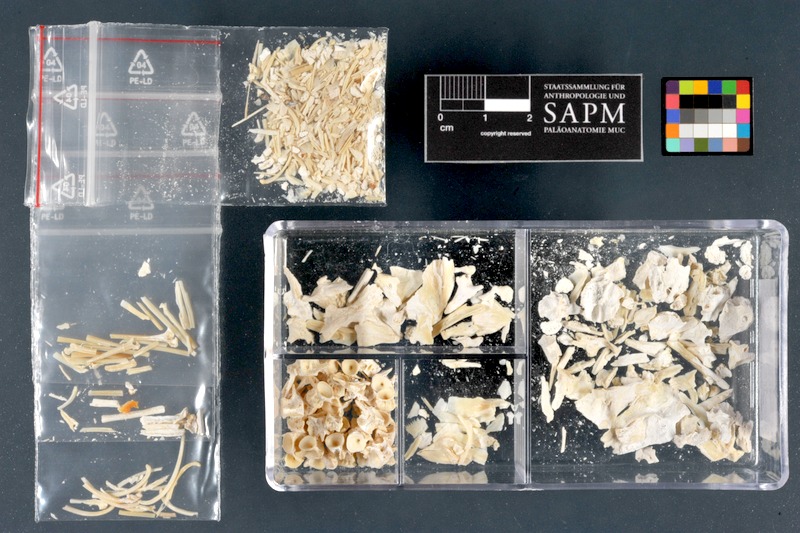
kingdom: Animalia
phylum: Chordata
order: Perciformes
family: Percidae
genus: Perca
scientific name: Perca fluviatilis
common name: Perch
